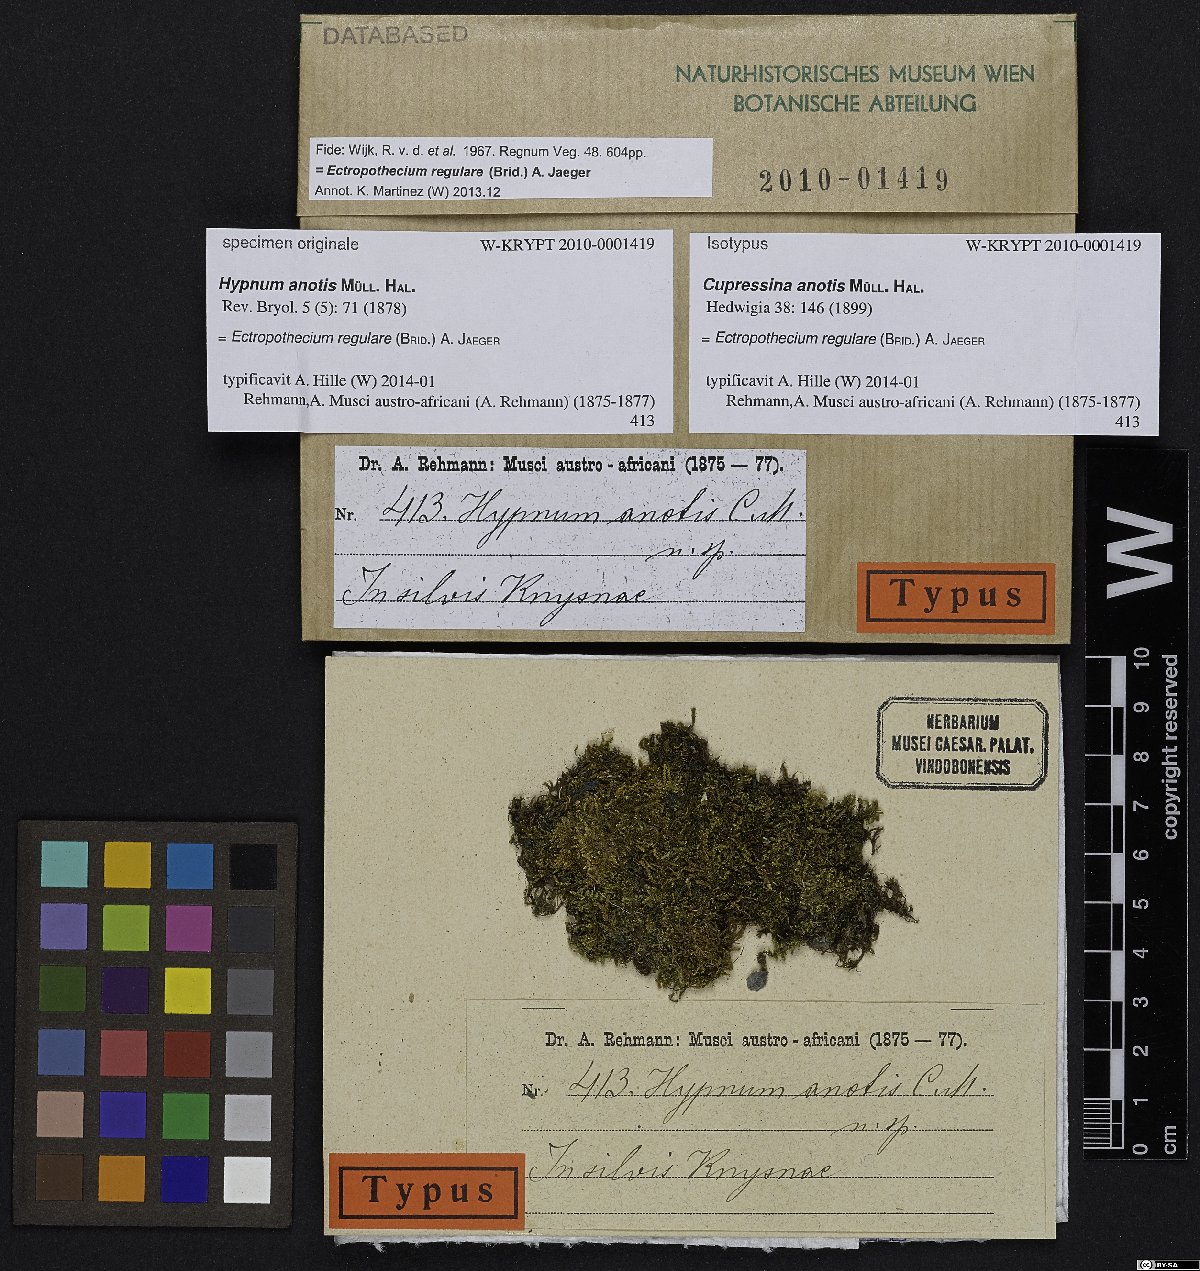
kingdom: Plantae
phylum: Bryophyta
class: Bryopsida
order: Hypnales
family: Hypnaceae
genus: Ectropothecium
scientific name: Ectropothecium regulare
